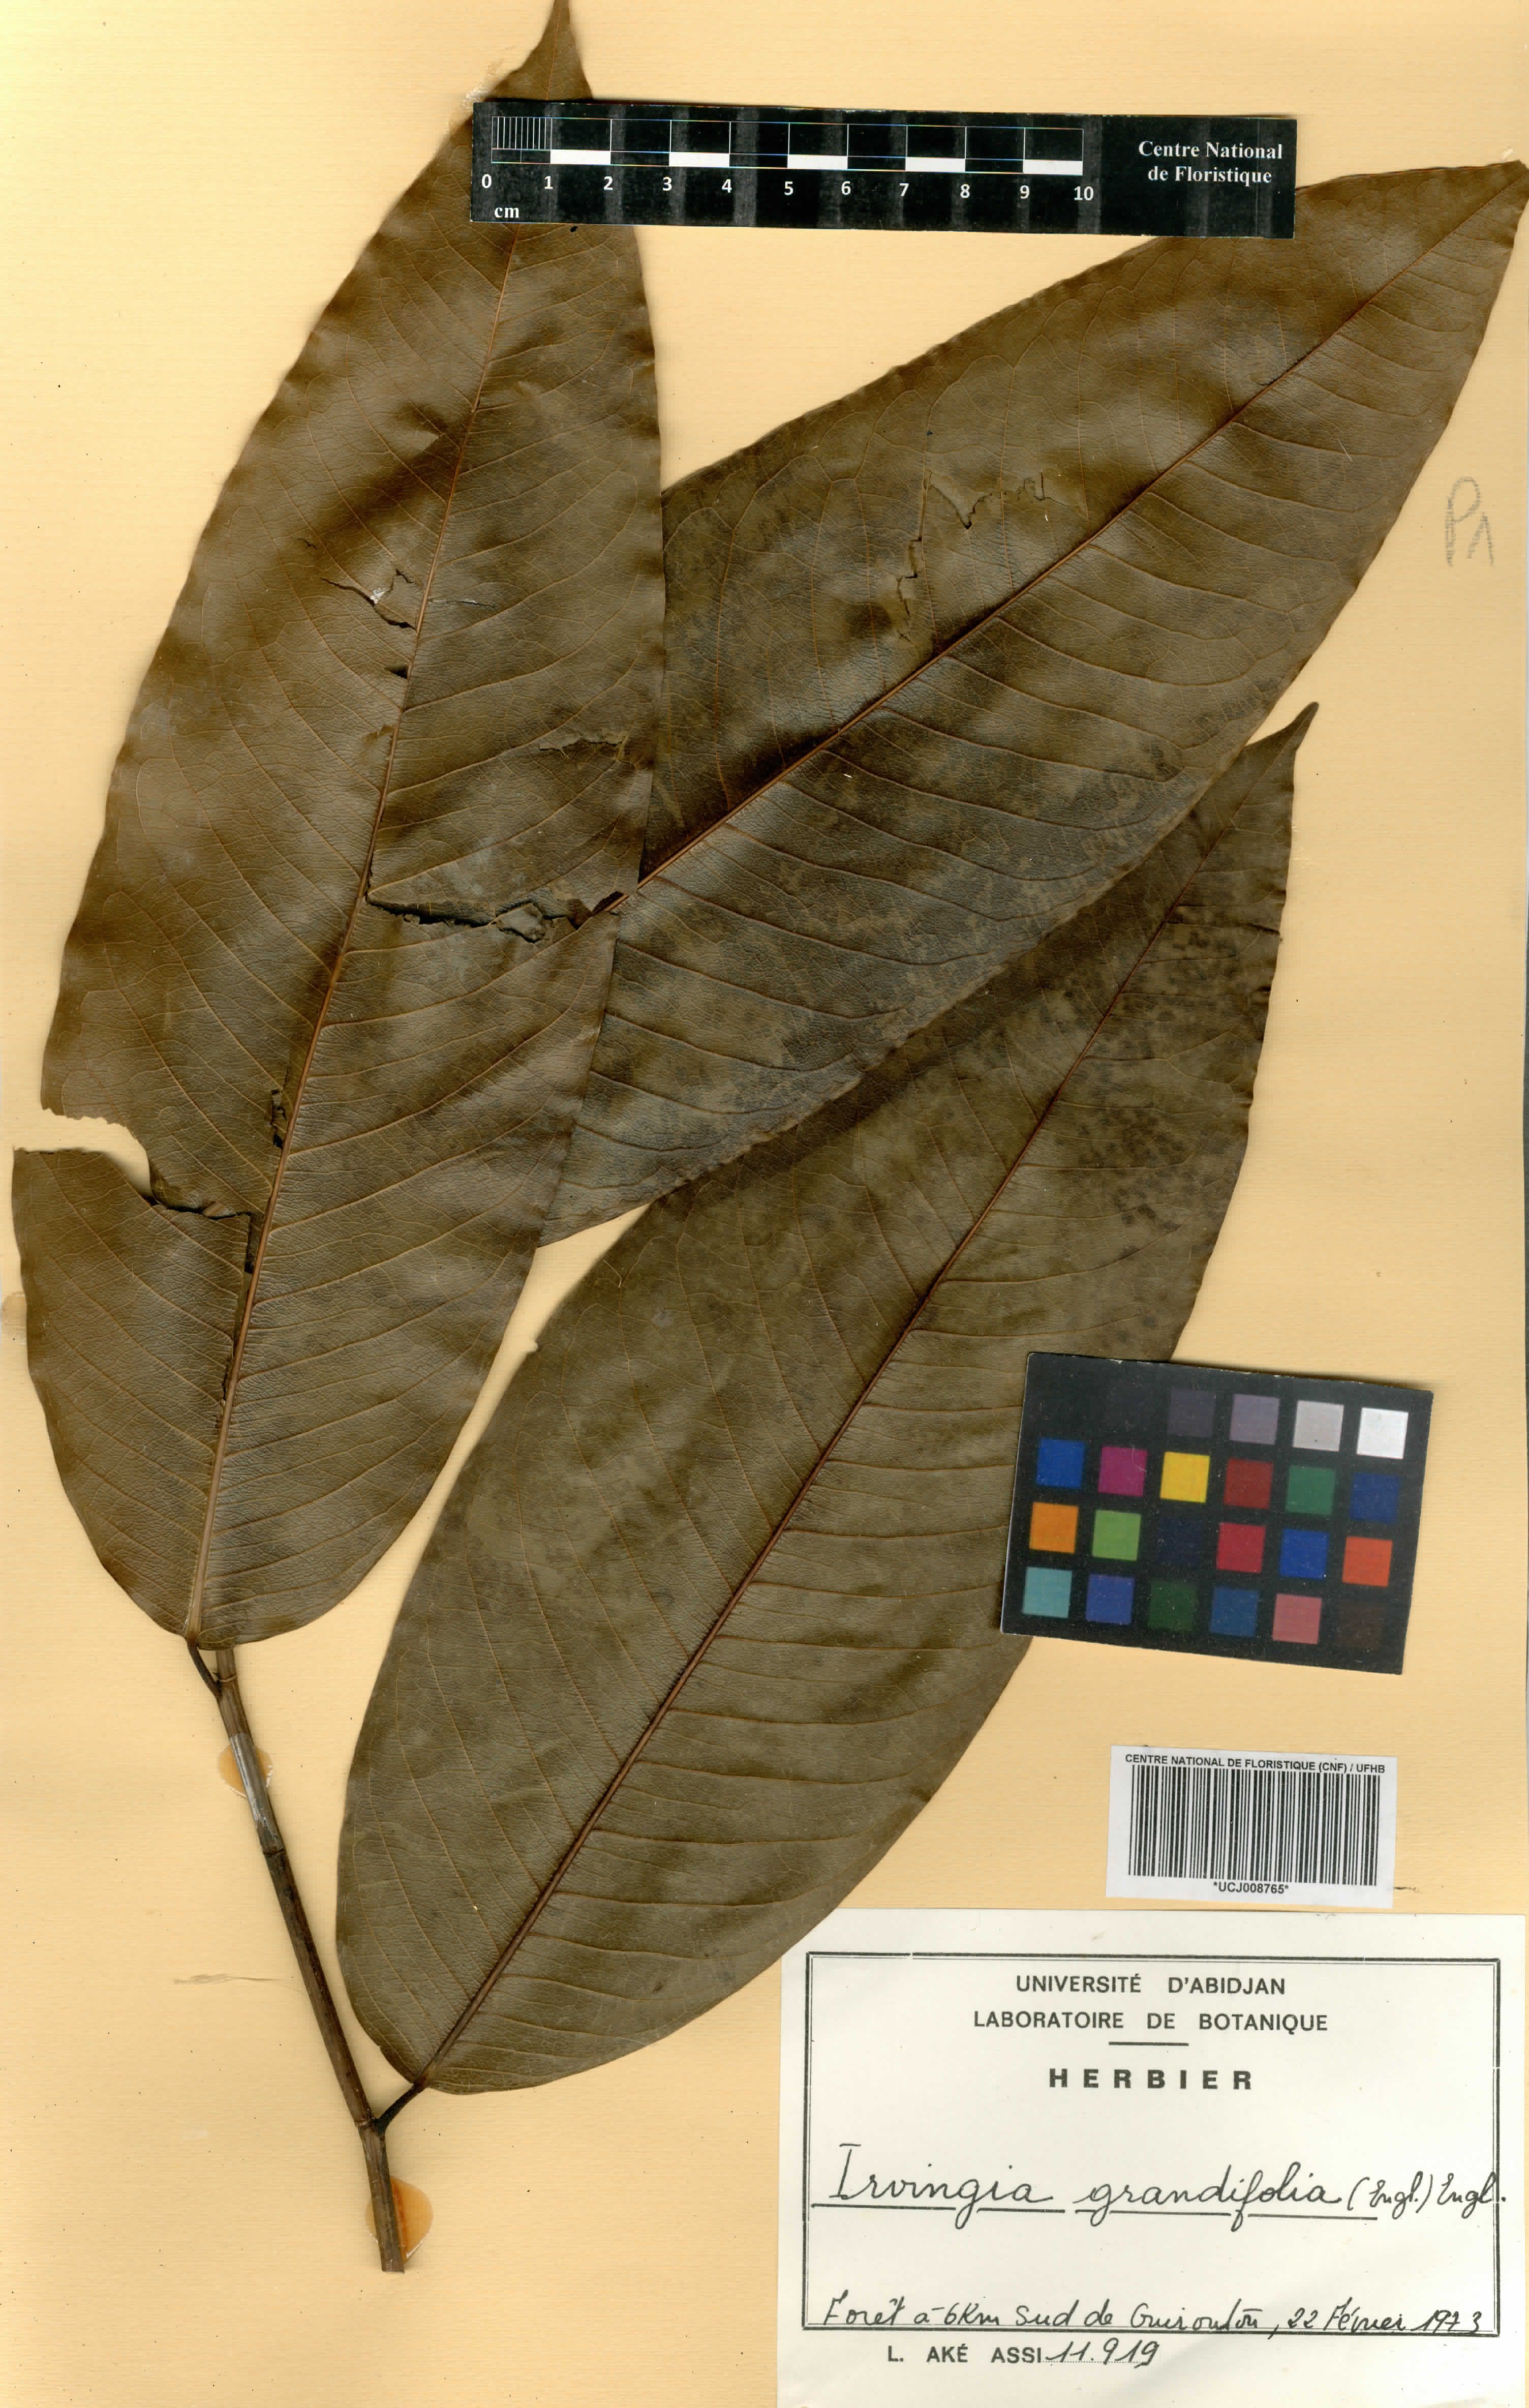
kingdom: Plantae
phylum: Tracheophyta
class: Magnoliopsida
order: Malpighiales
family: Irvingiaceae
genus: Irvingia
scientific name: Irvingia grandifolia
